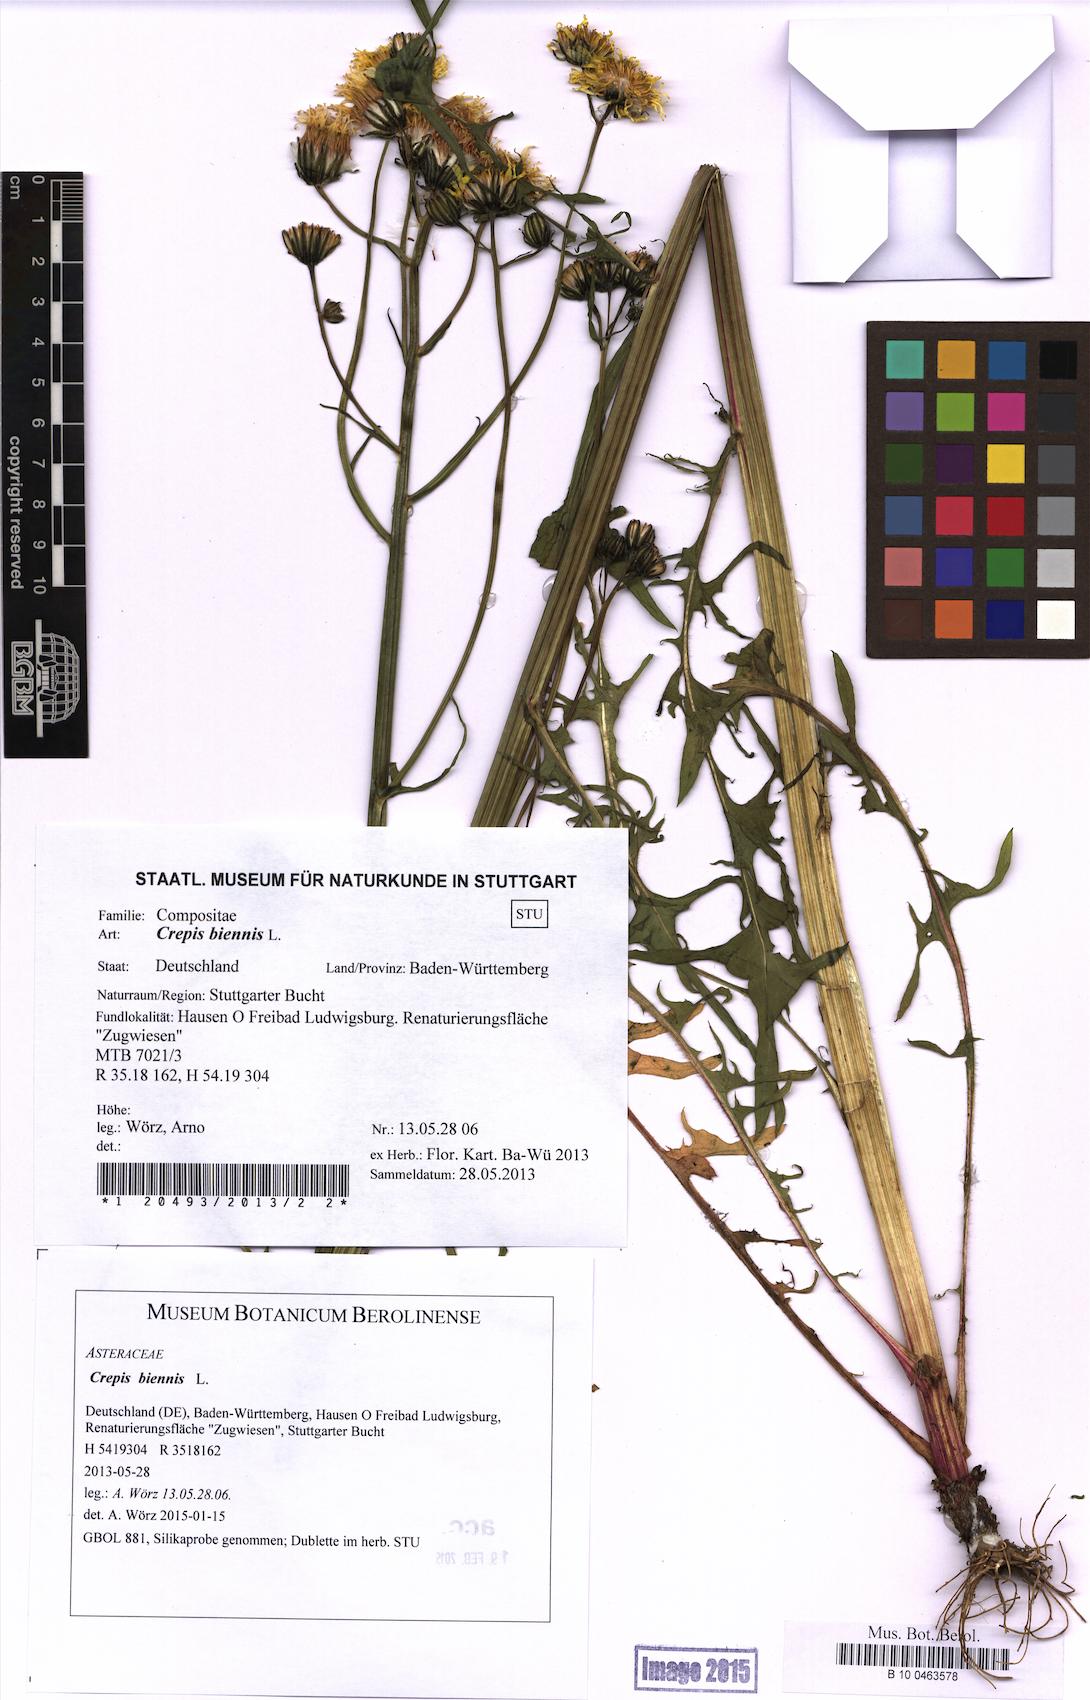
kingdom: Plantae
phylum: Tracheophyta
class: Magnoliopsida
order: Asterales
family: Asteraceae
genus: Crepis
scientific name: Crepis biennis
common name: Rough hawk's-beard
